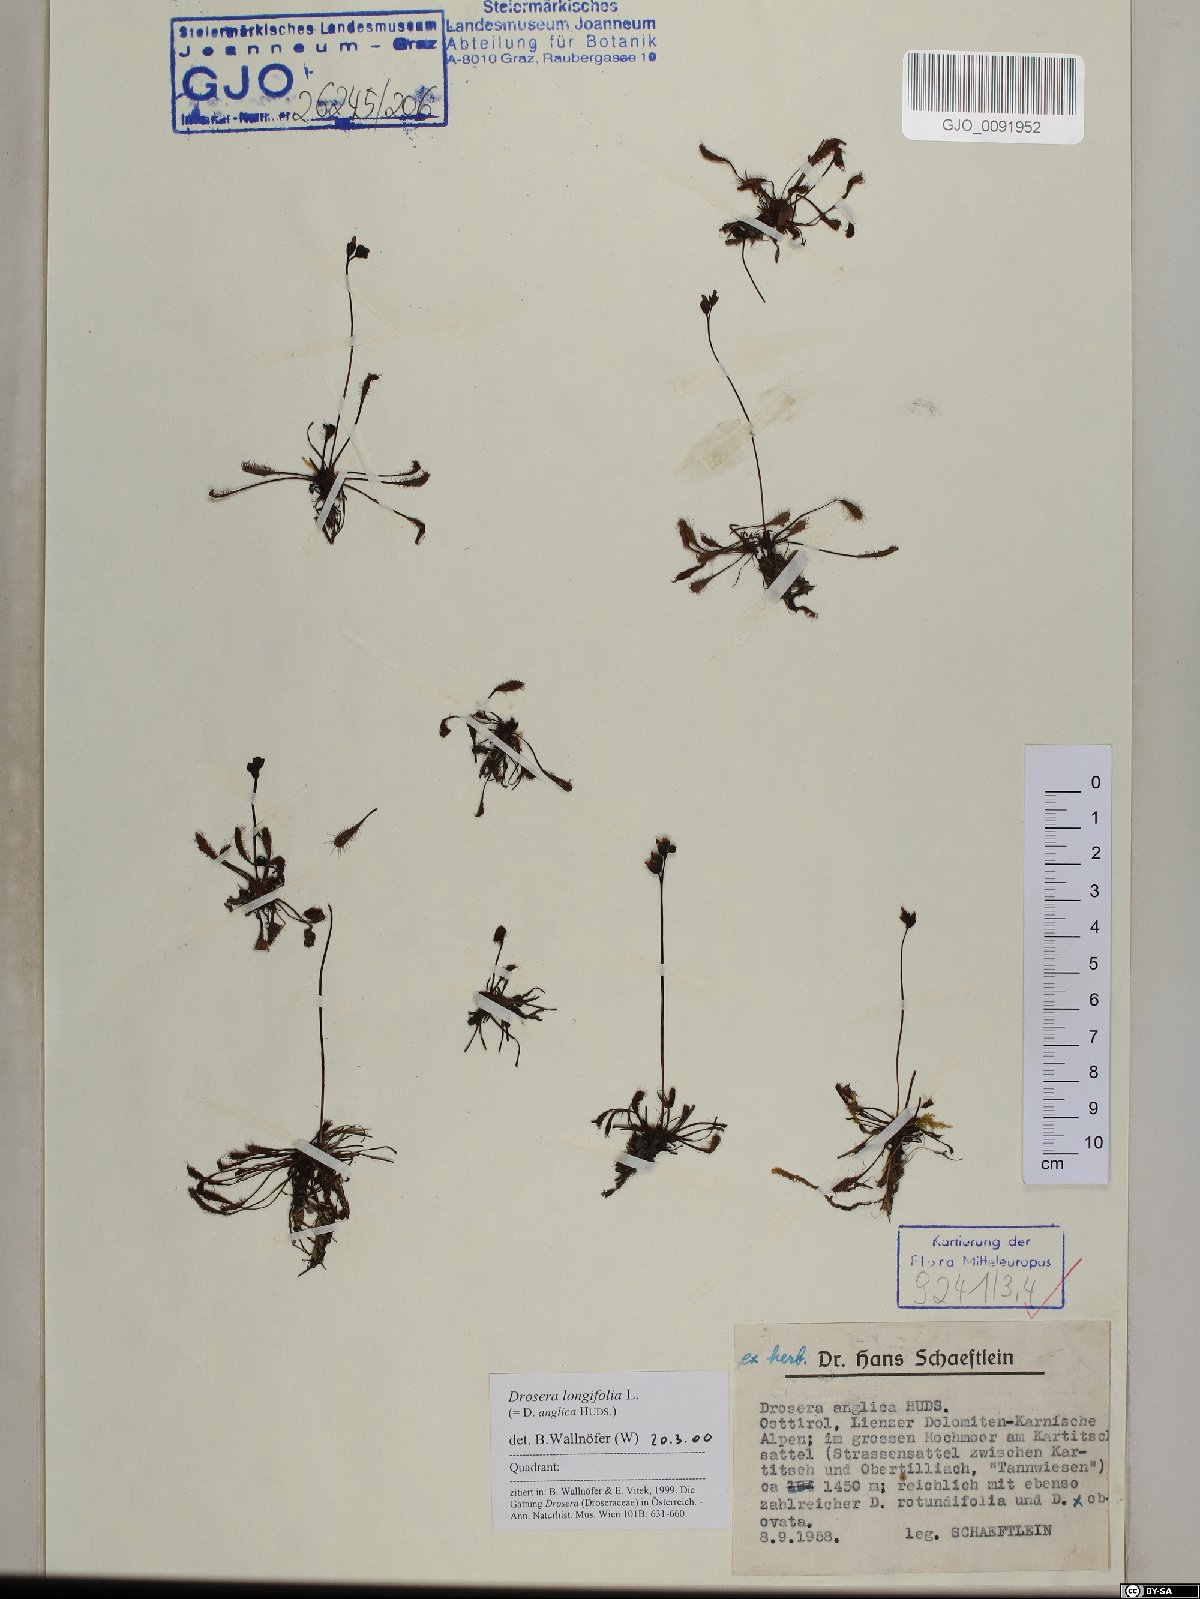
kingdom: Plantae
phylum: Tracheophyta
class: Magnoliopsida
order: Caryophyllales
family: Droseraceae
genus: Drosera
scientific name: Drosera anglica
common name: Great sundew
